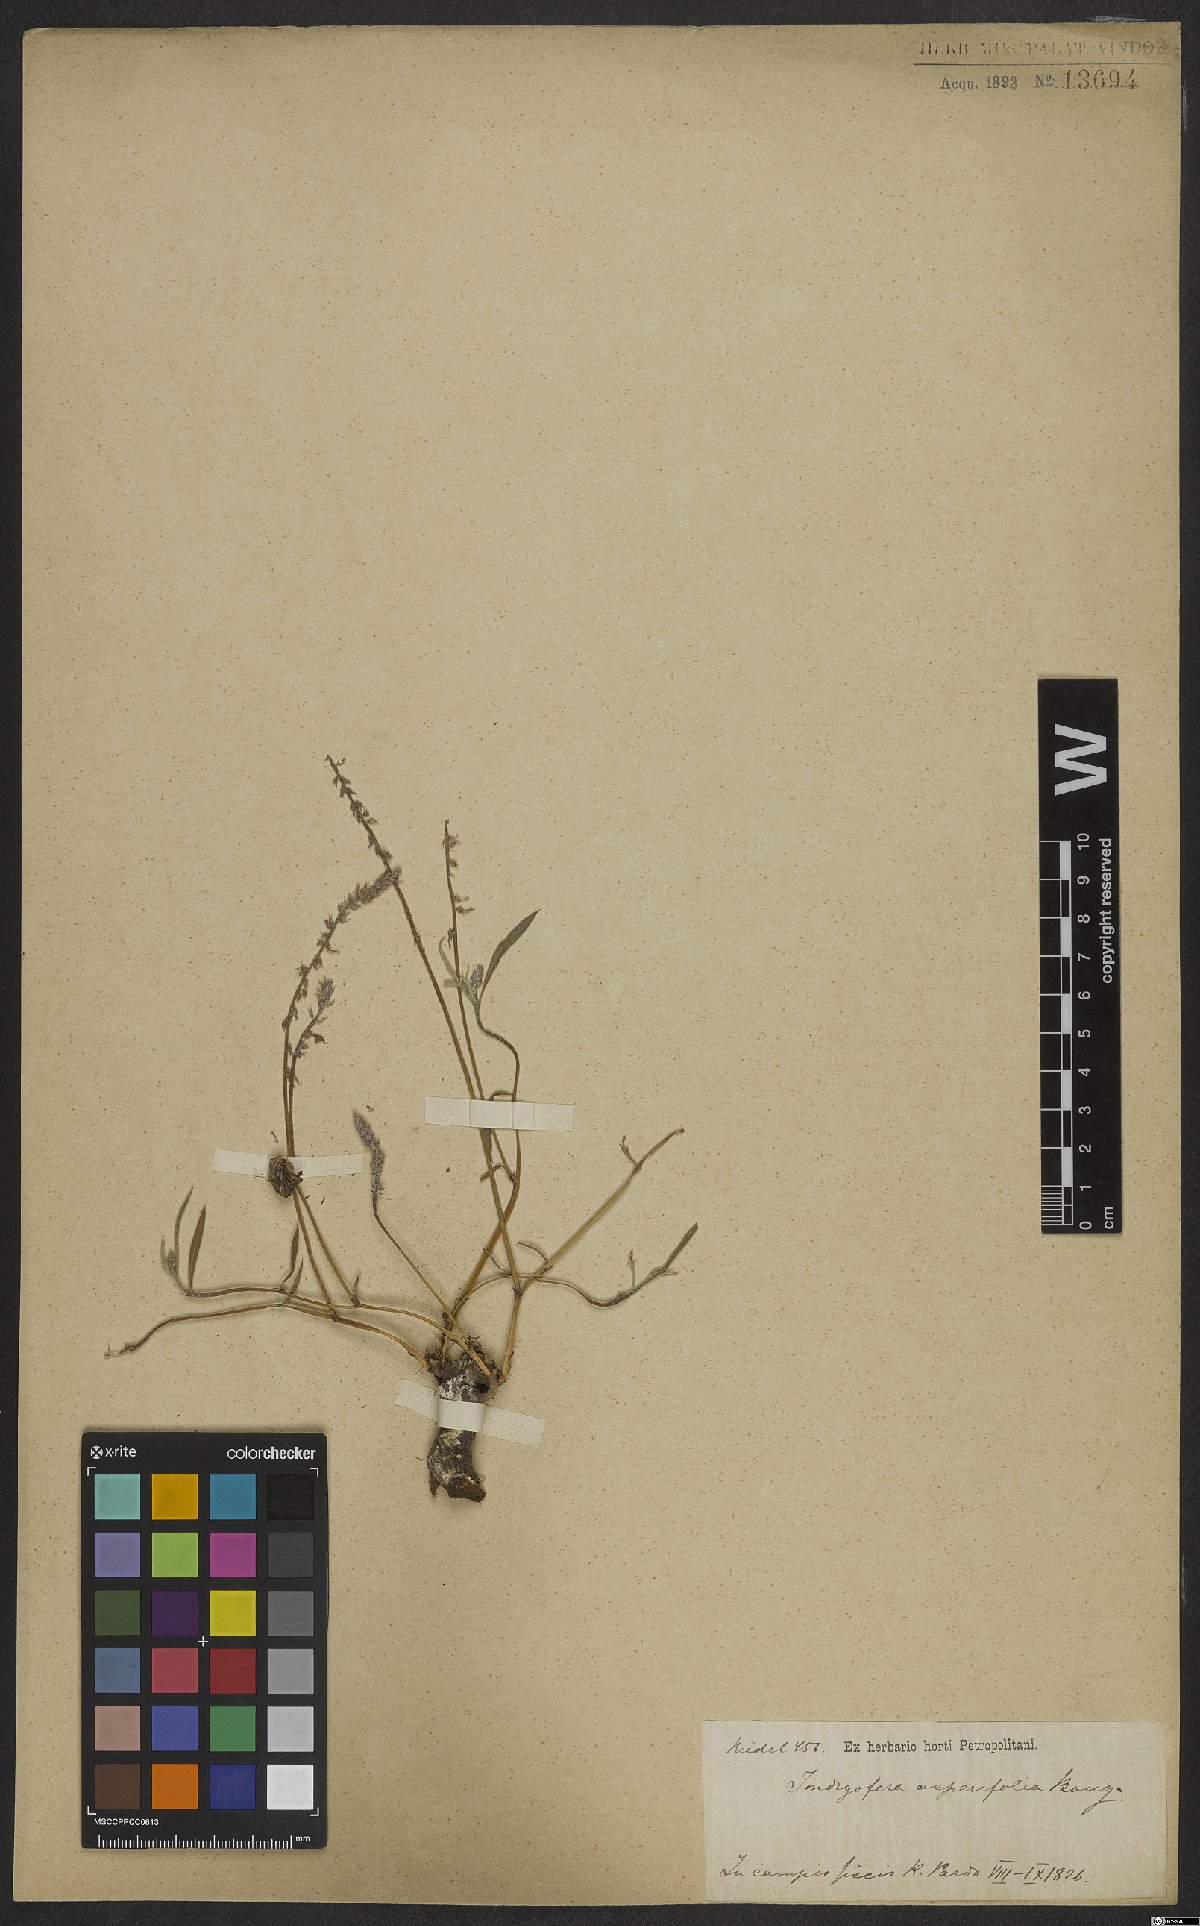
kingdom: Plantae
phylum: Tracheophyta
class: Magnoliopsida
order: Fabales
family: Fabaceae
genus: Indigofera
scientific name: Indigofera asperifolia
